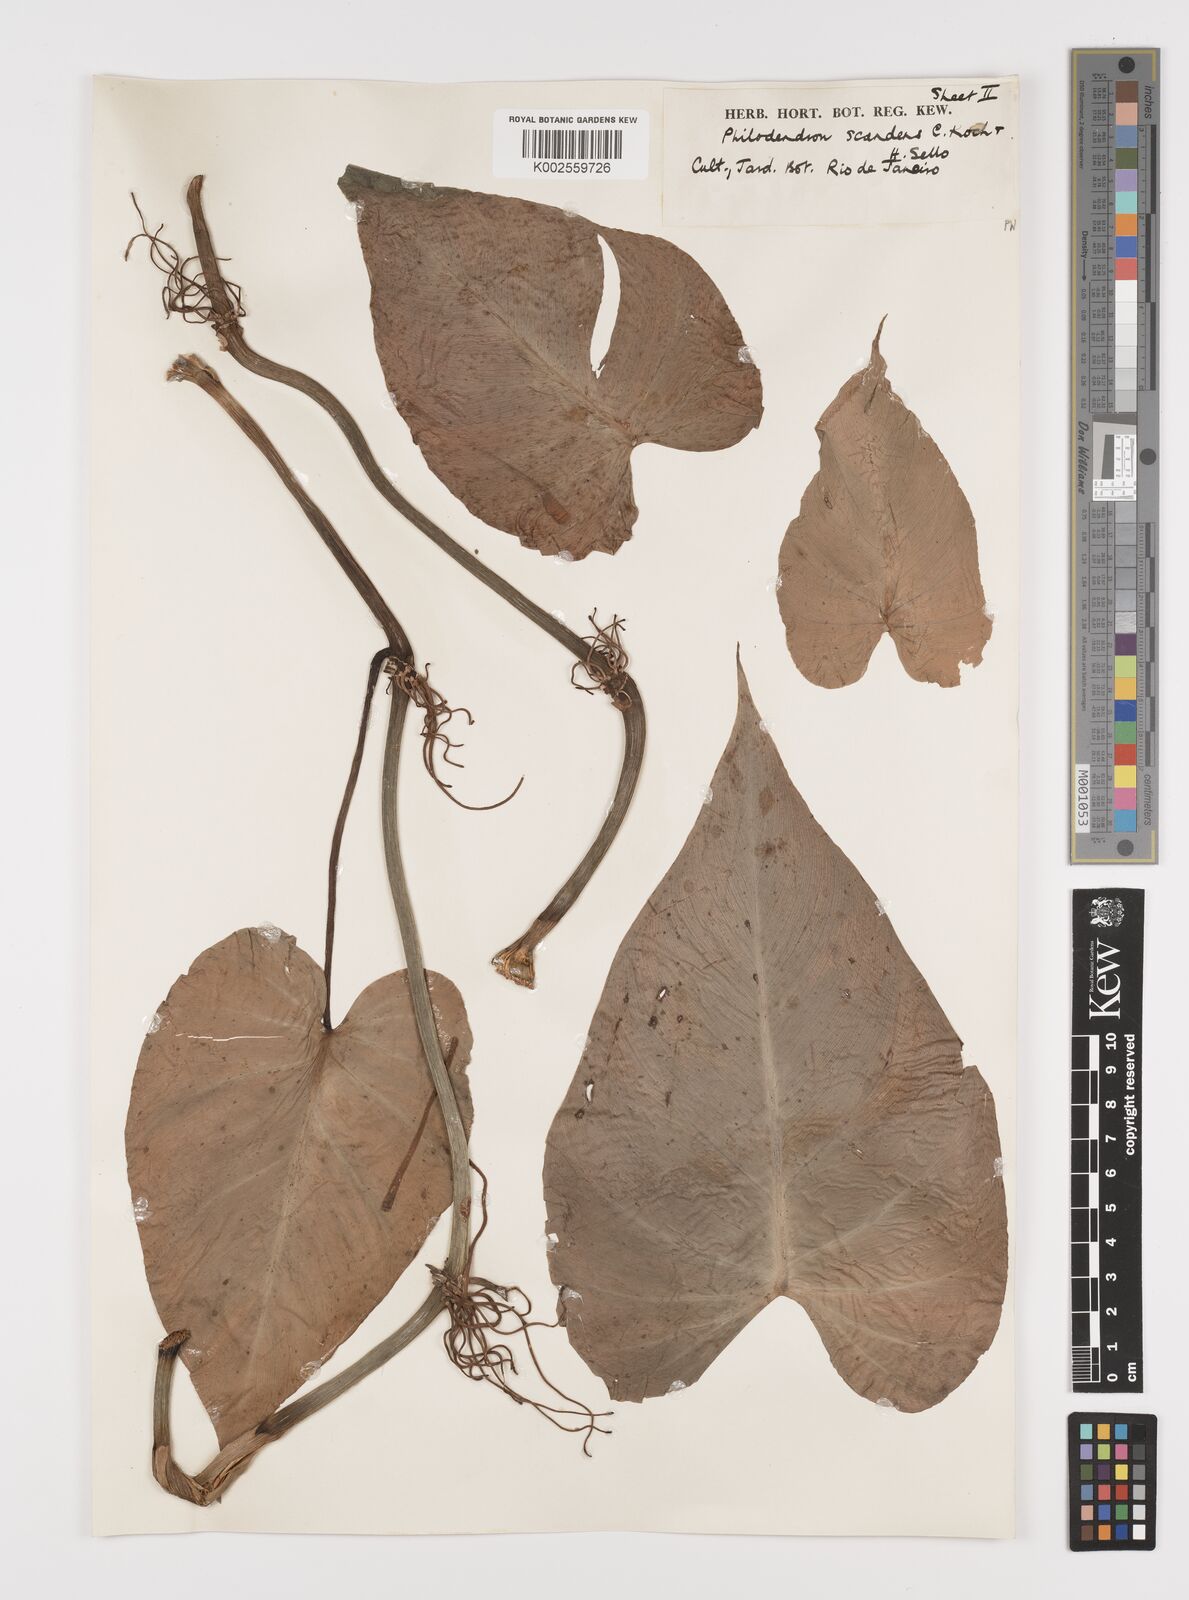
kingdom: Plantae
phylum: Tracheophyta
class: Liliopsida
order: Alismatales
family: Araceae
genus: Philodendron
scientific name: Philodendron hederaceum
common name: Vilevine
